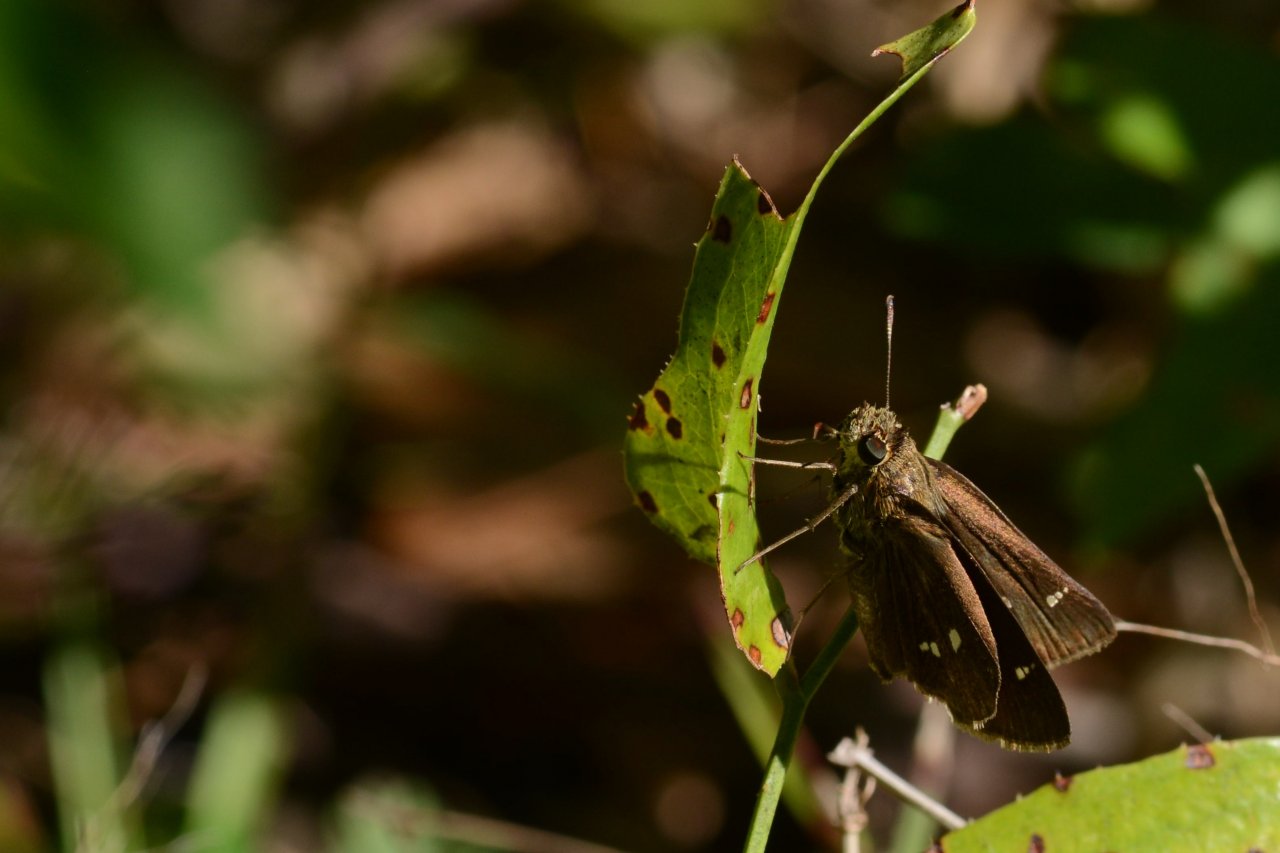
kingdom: Animalia
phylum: Arthropoda
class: Insecta
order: Lepidoptera
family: Hesperiidae
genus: Oligoria
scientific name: Oligoria maculata
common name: Twin-spot Skipper
